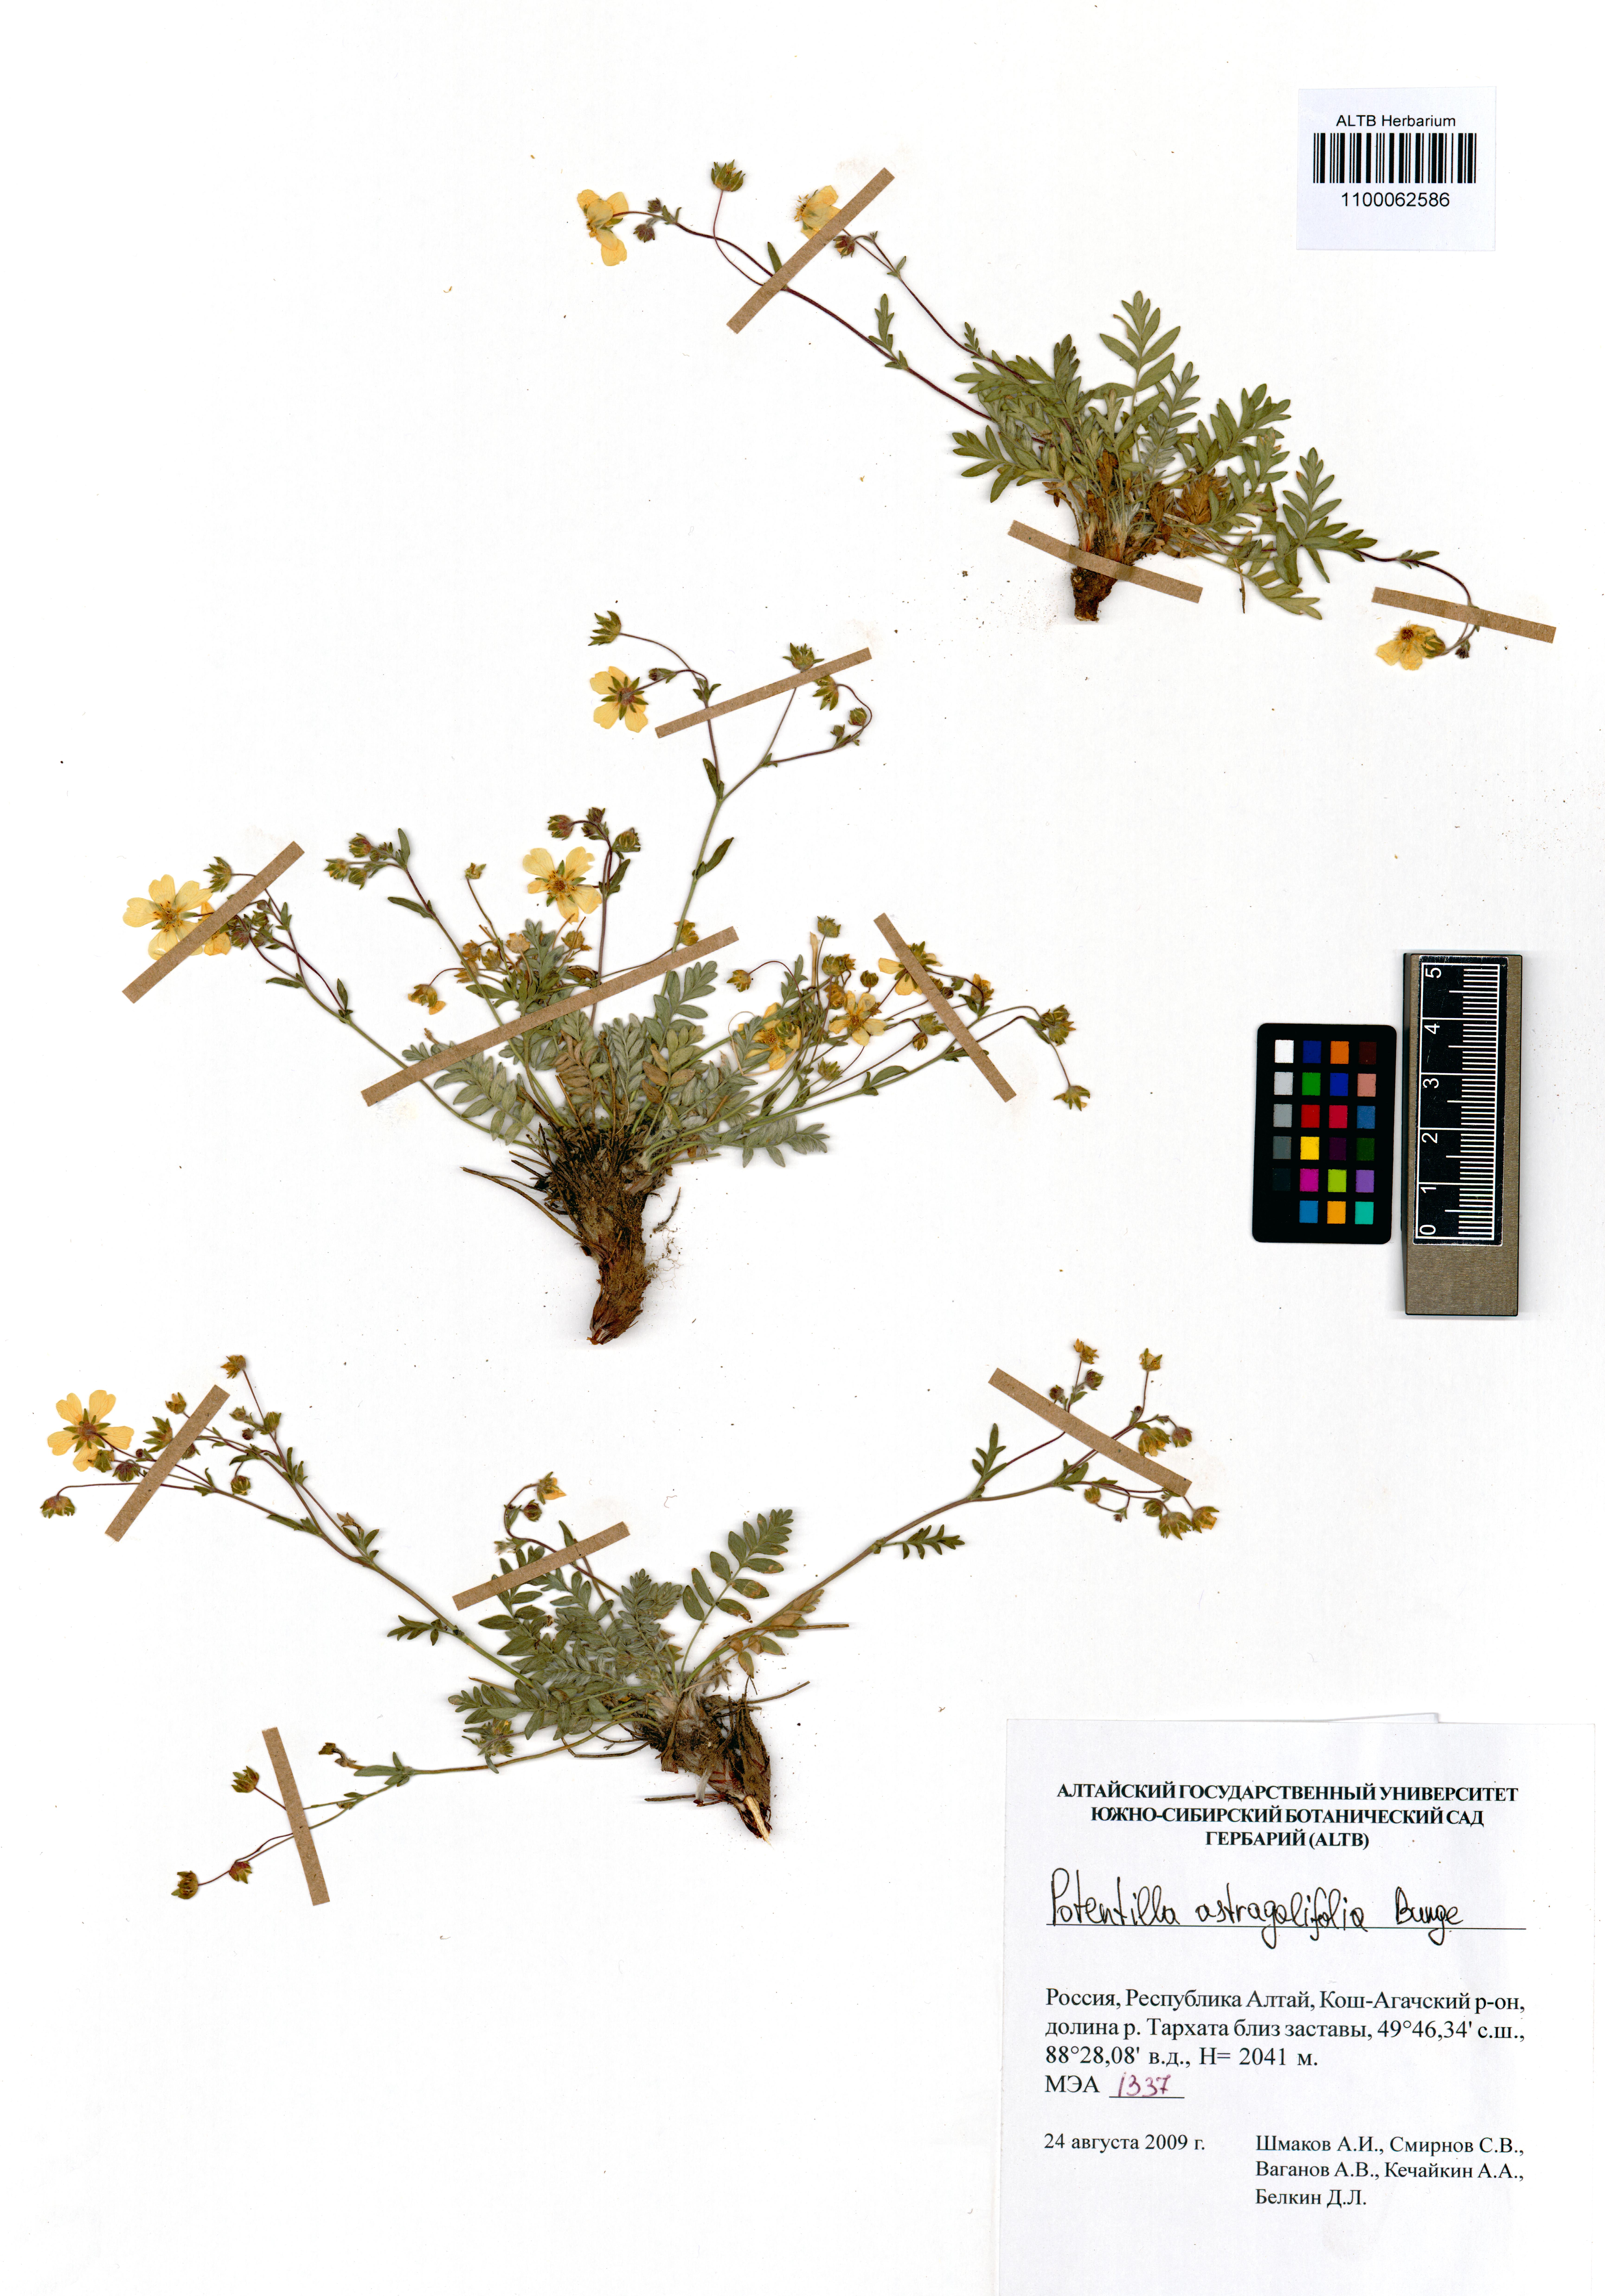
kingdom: Plantae
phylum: Tracheophyta
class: Magnoliopsida
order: Rosales
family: Rosaceae
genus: Potentilla
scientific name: Potentilla astragalifolia
